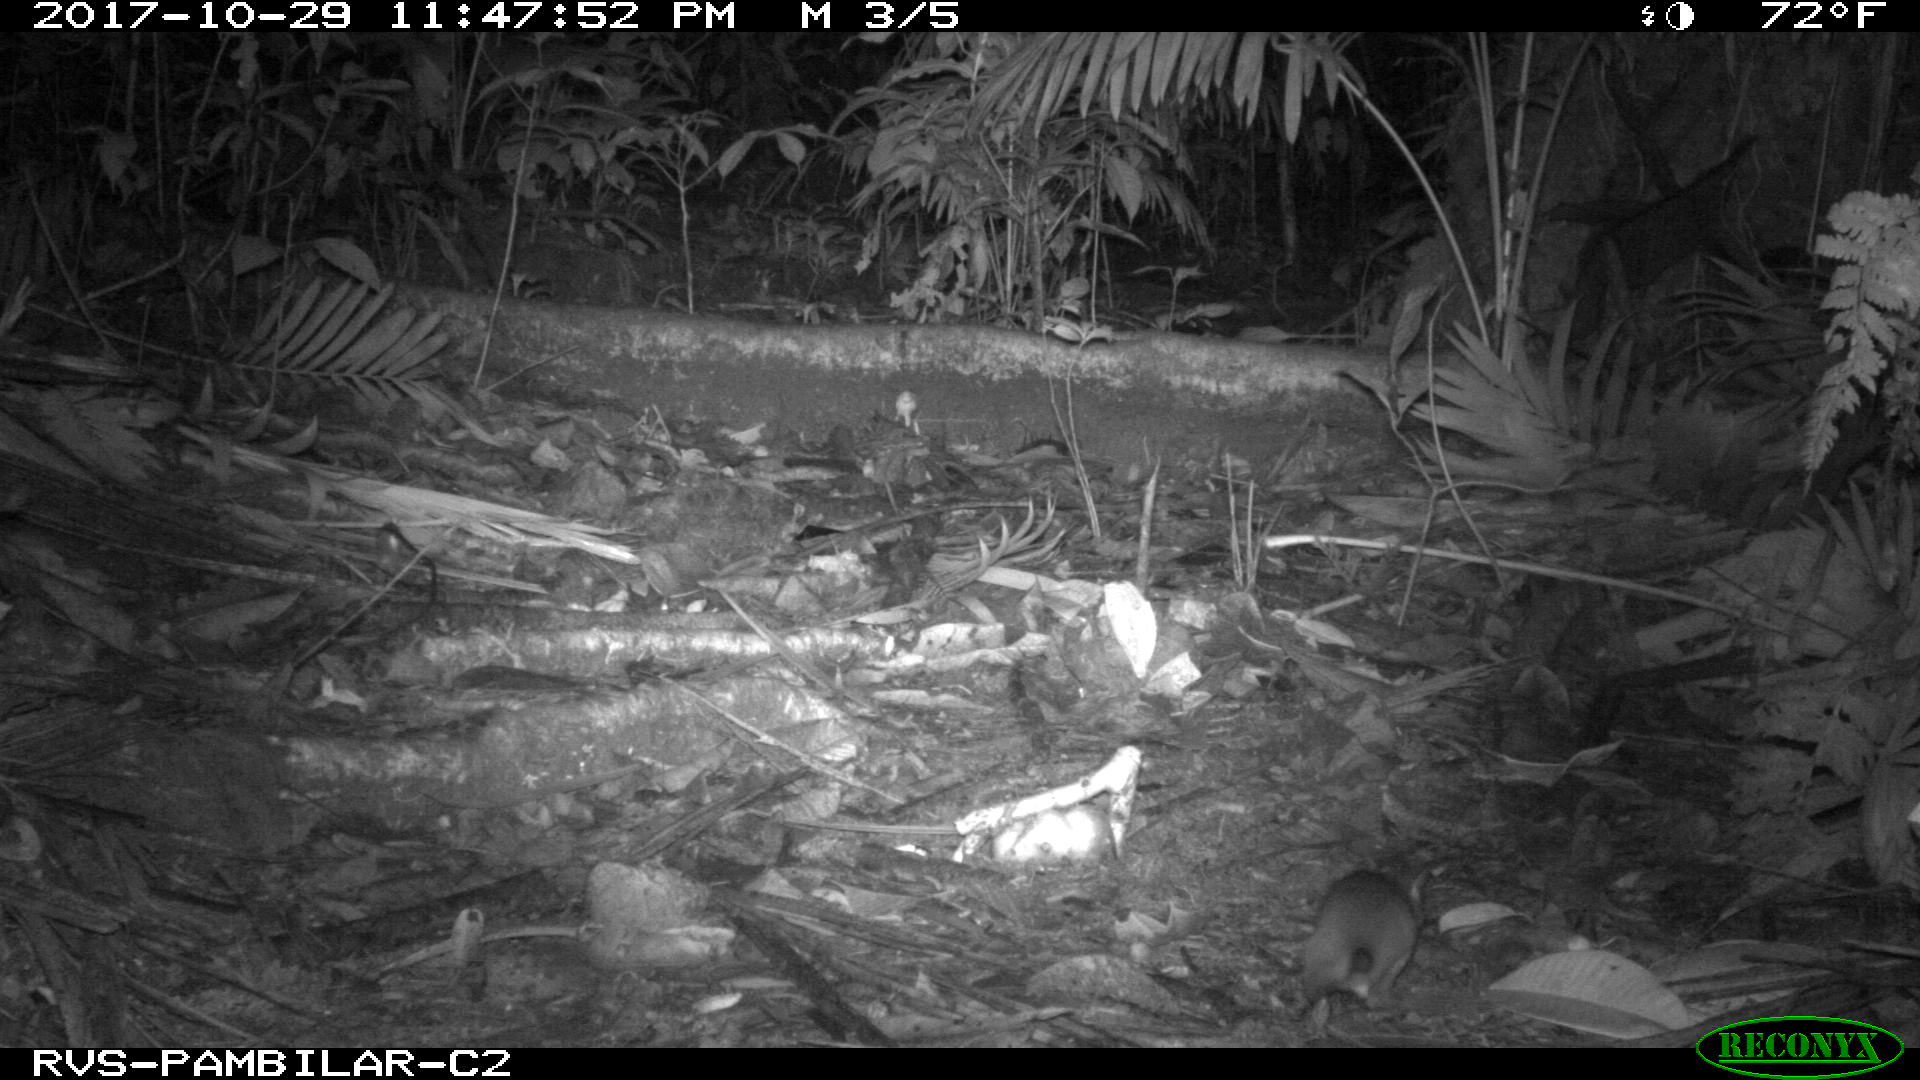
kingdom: Animalia
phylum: Chordata
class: Mammalia
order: Rodentia
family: Echimyidae
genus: Proechimys
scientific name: Proechimys
